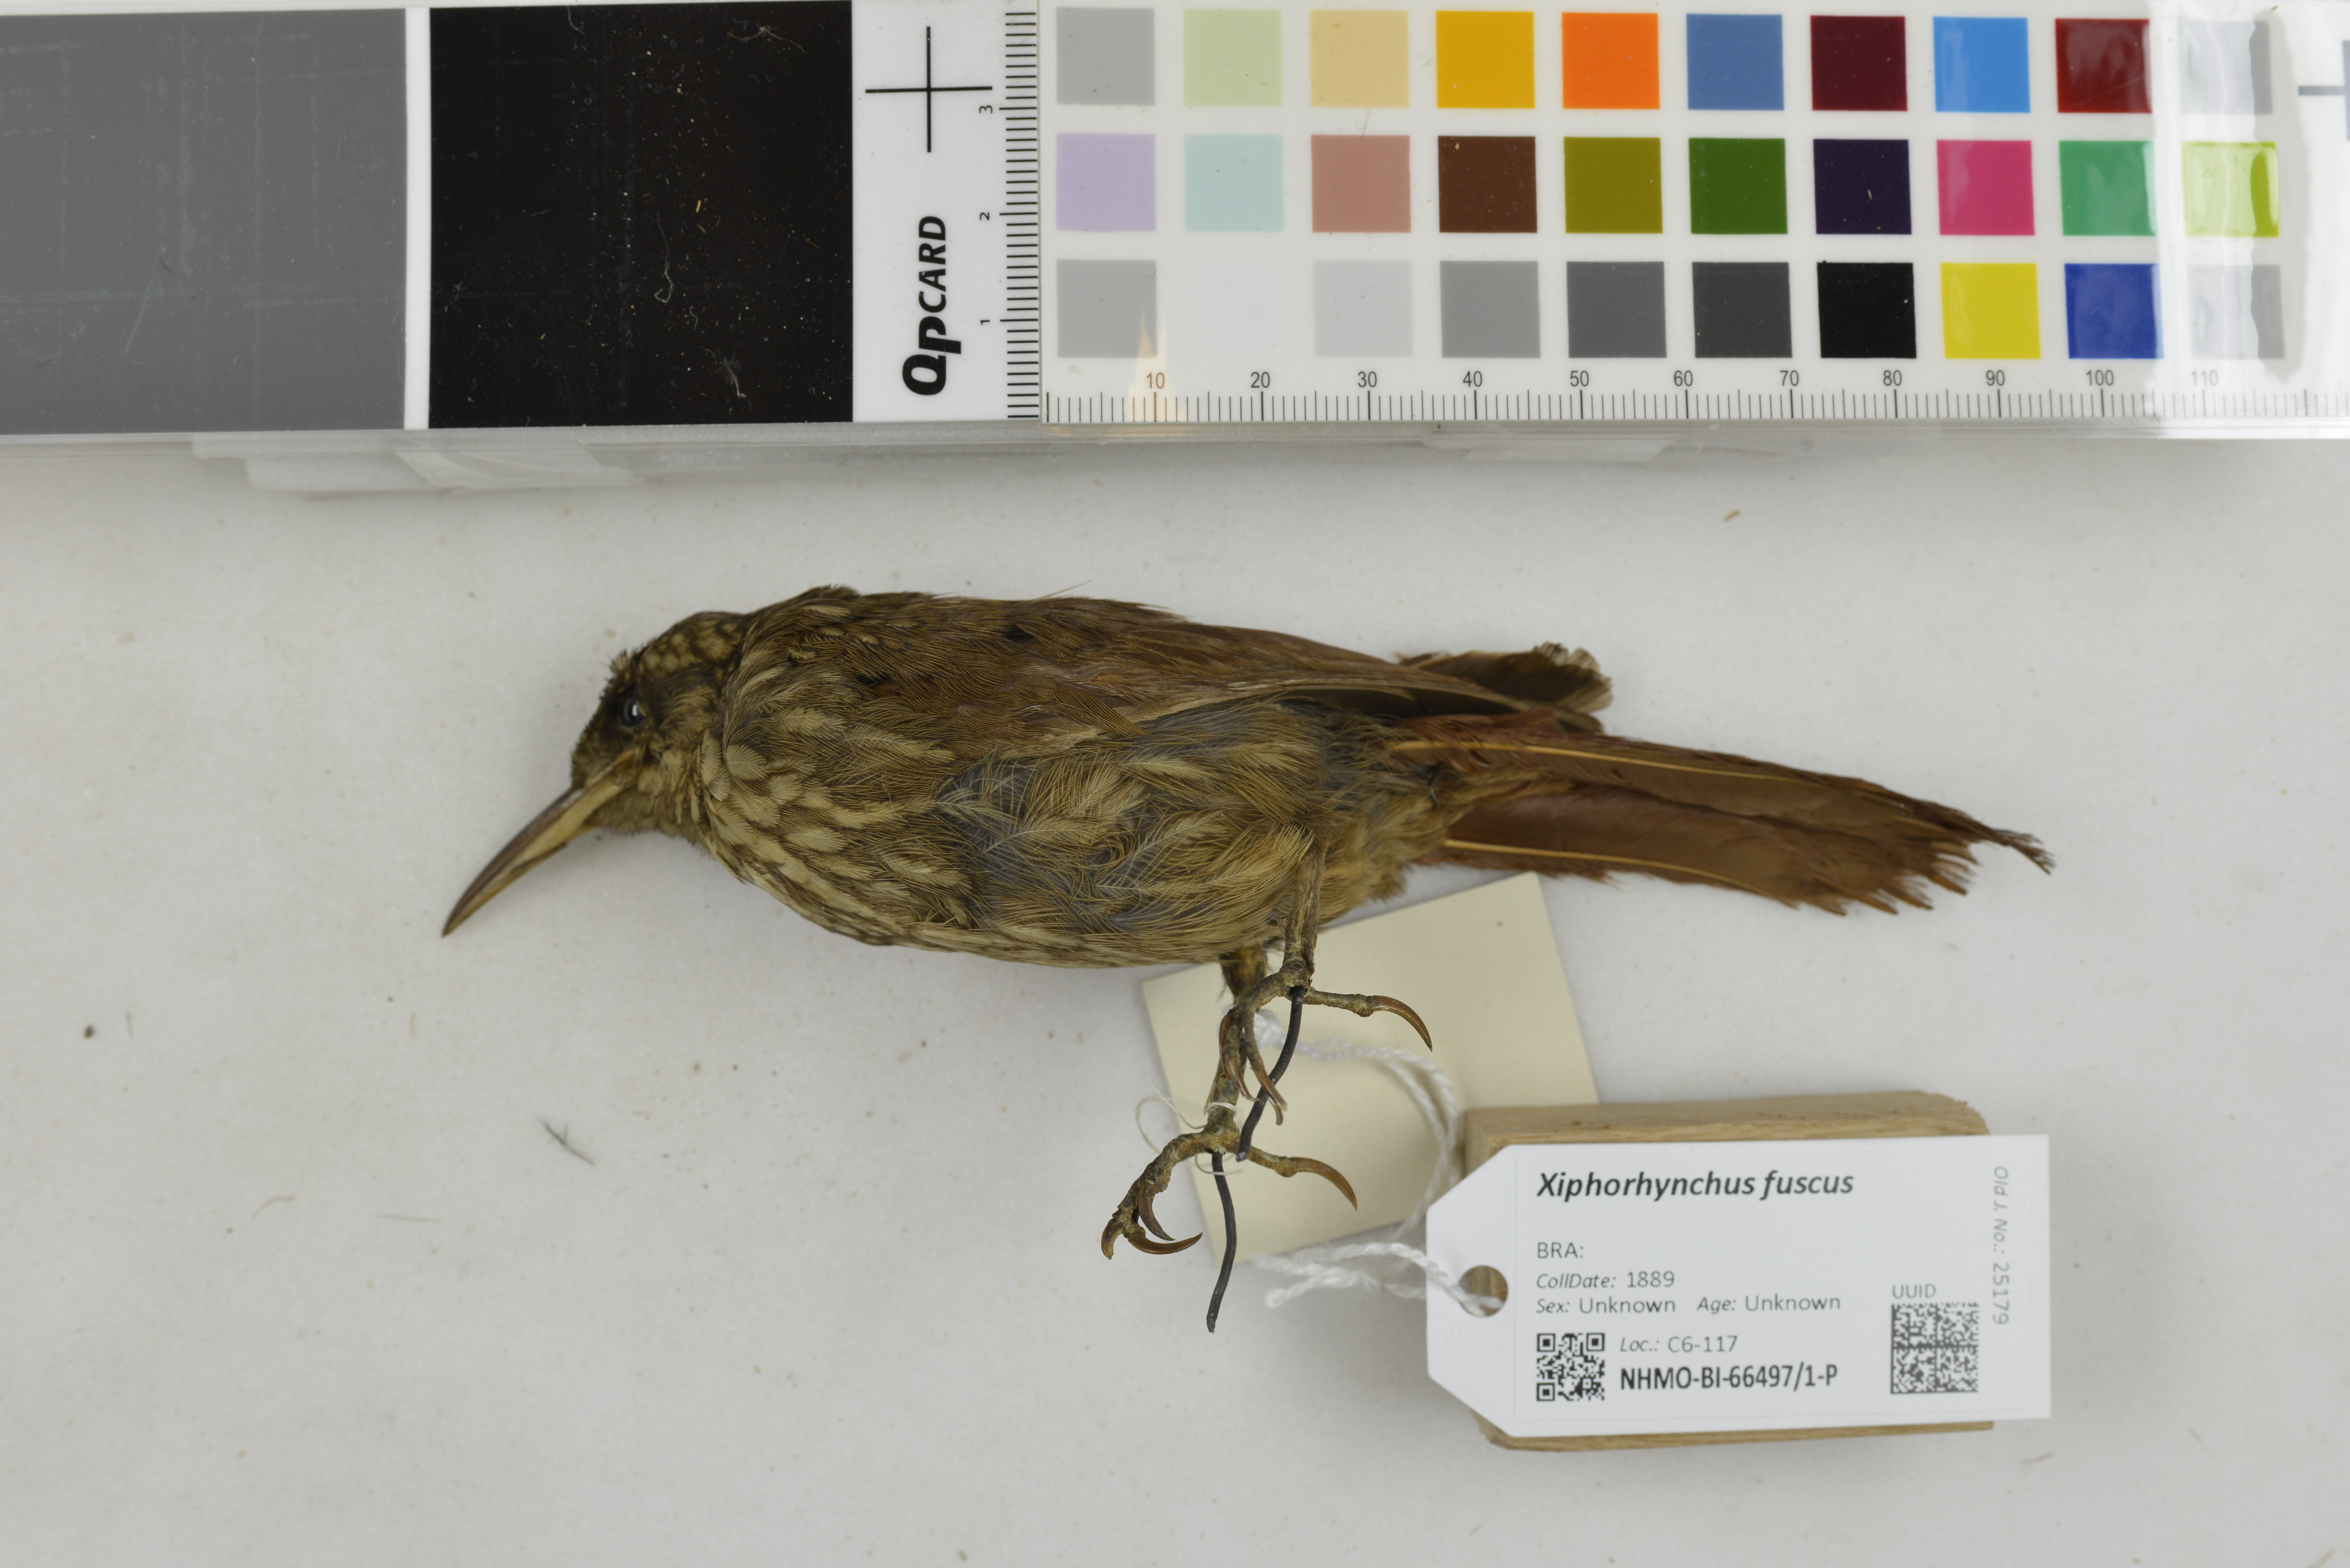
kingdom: Animalia
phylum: Chordata
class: Aves
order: Passeriformes
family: Furnariidae
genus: Xiphorhynchus
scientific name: Xiphorhynchus fuscus
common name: Lesser woodcreeper
